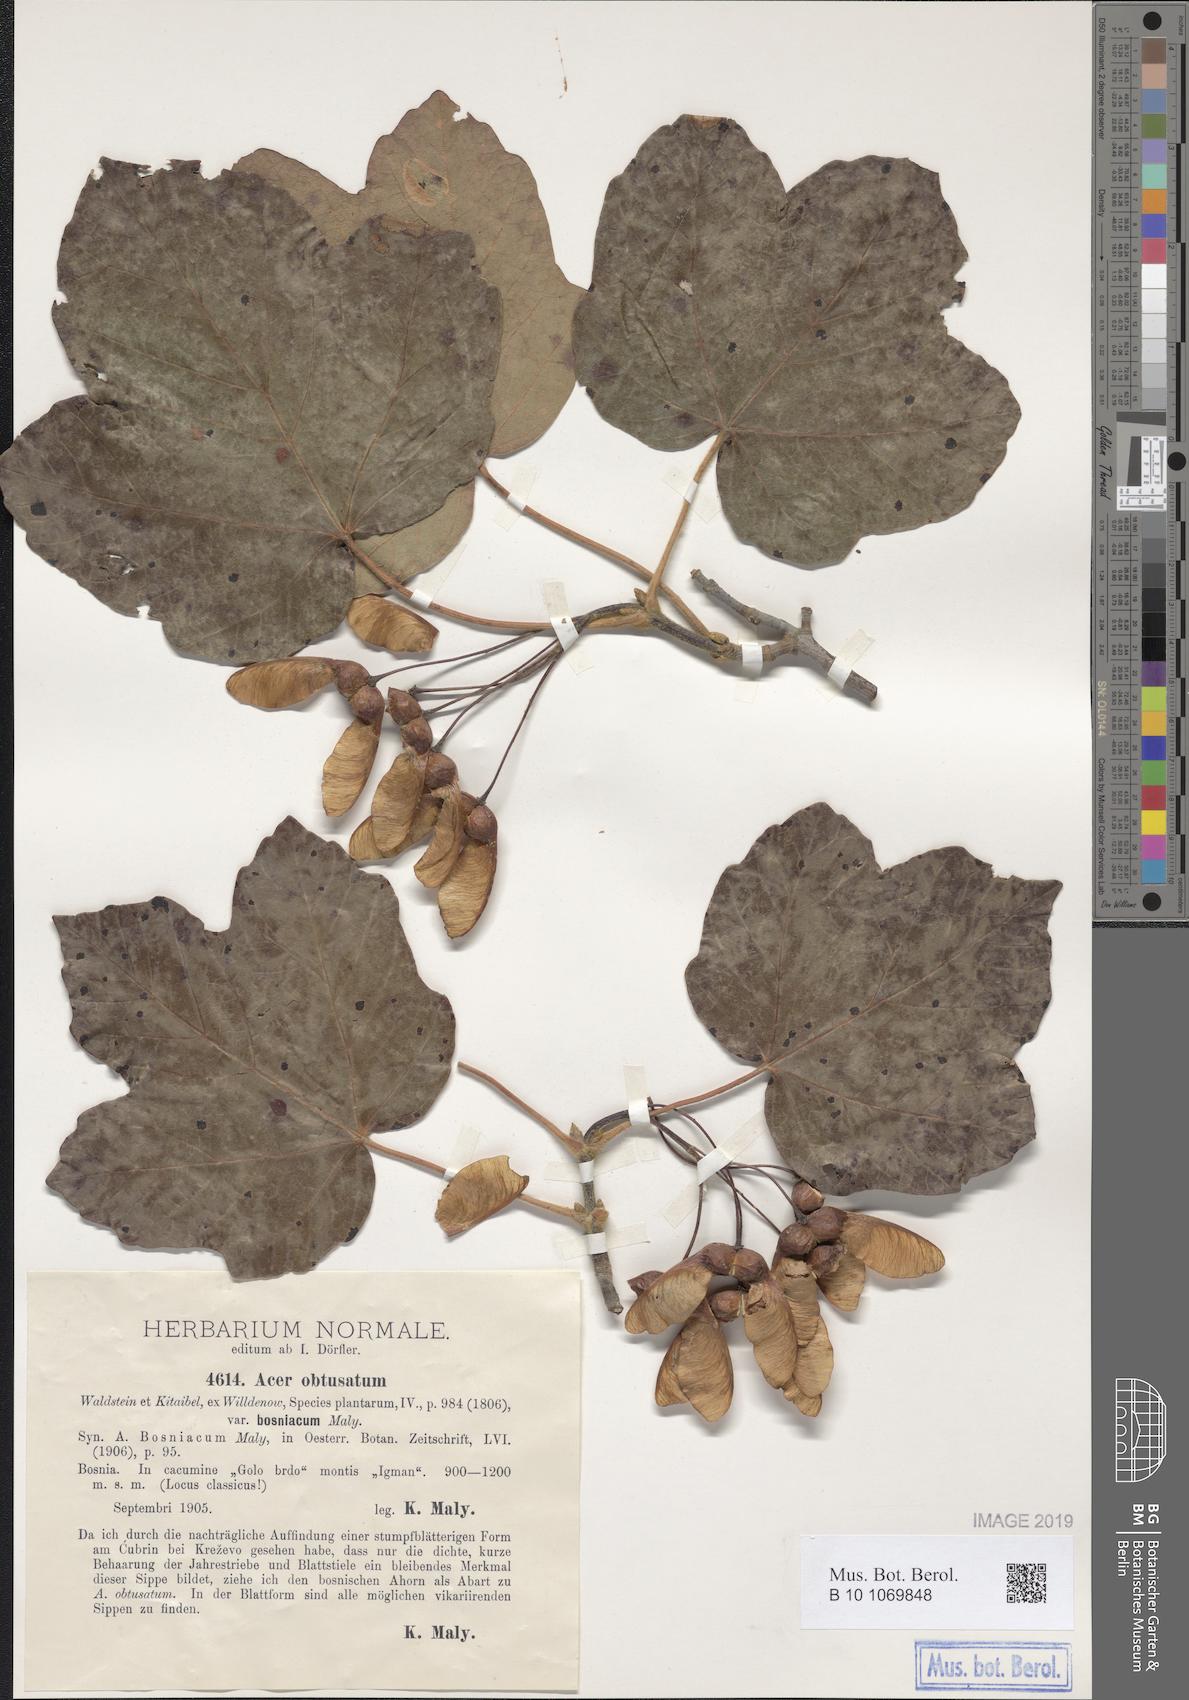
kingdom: Plantae
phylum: Tracheophyta
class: Magnoliopsida
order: Sapindales
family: Sapindaceae
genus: Acer
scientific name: Acer obtusatum
